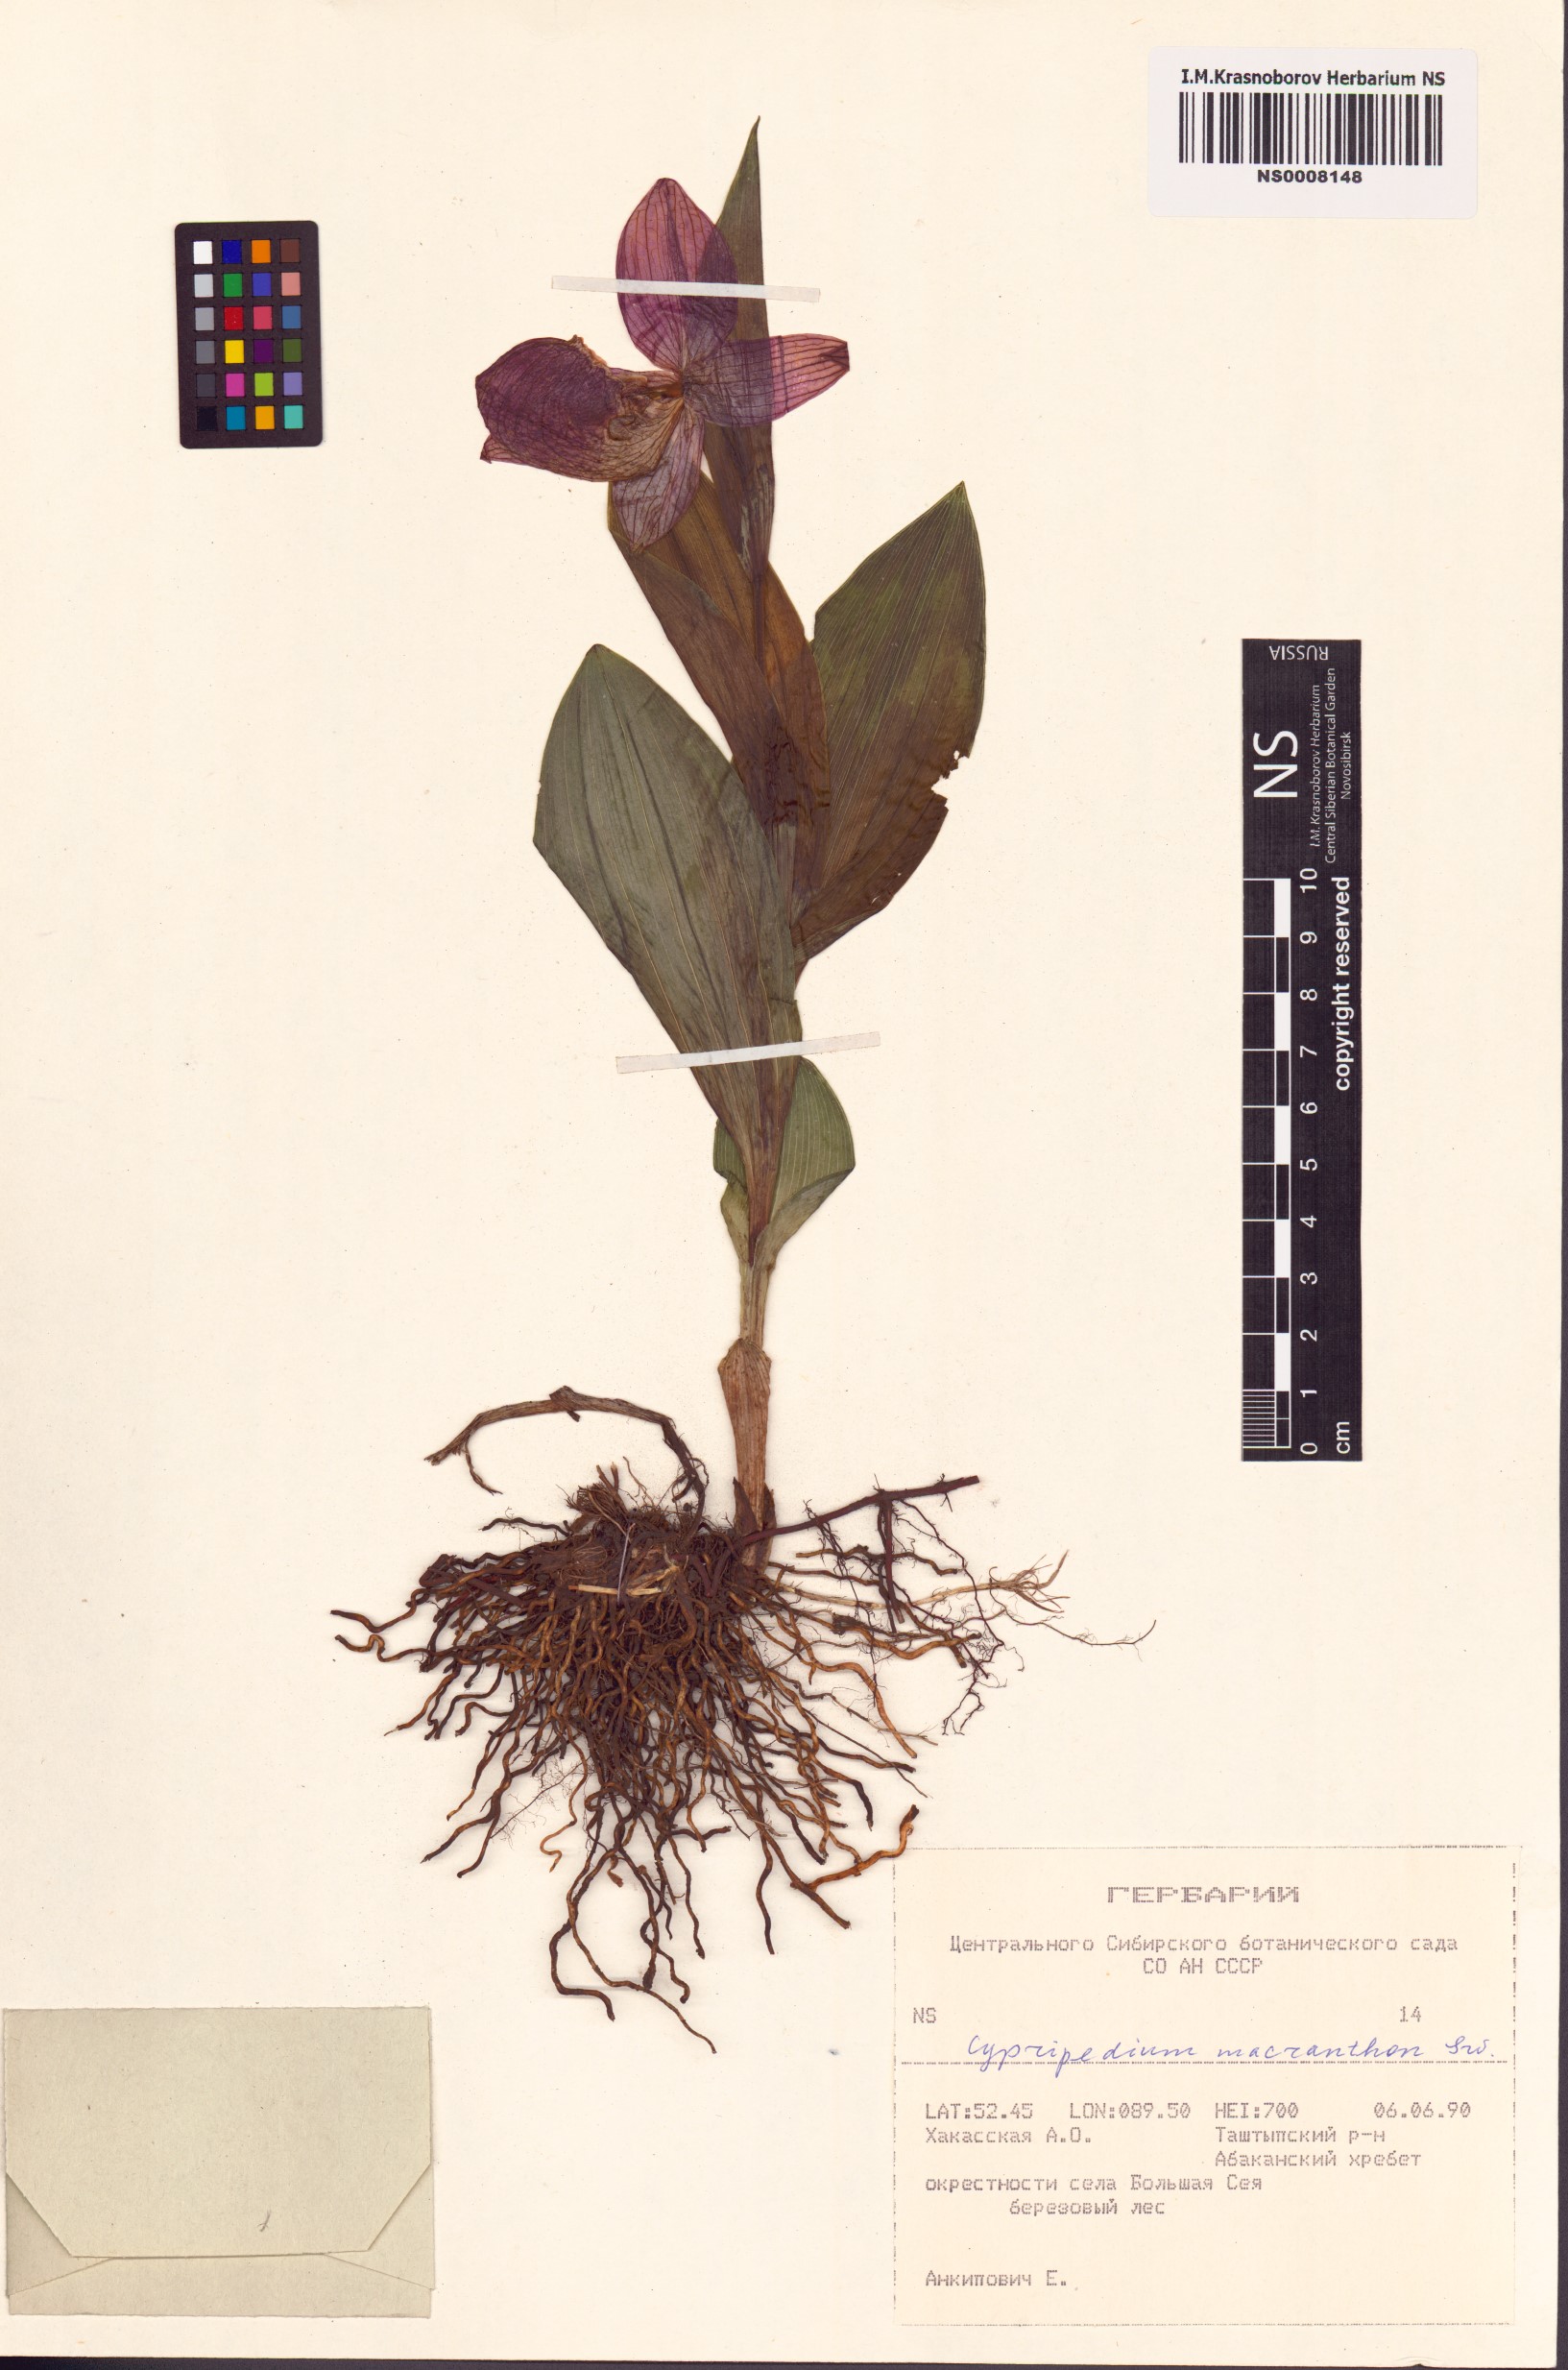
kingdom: Plantae
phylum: Tracheophyta
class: Liliopsida
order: Asparagales
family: Orchidaceae
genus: Cypripedium
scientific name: Cypripedium macranthos
